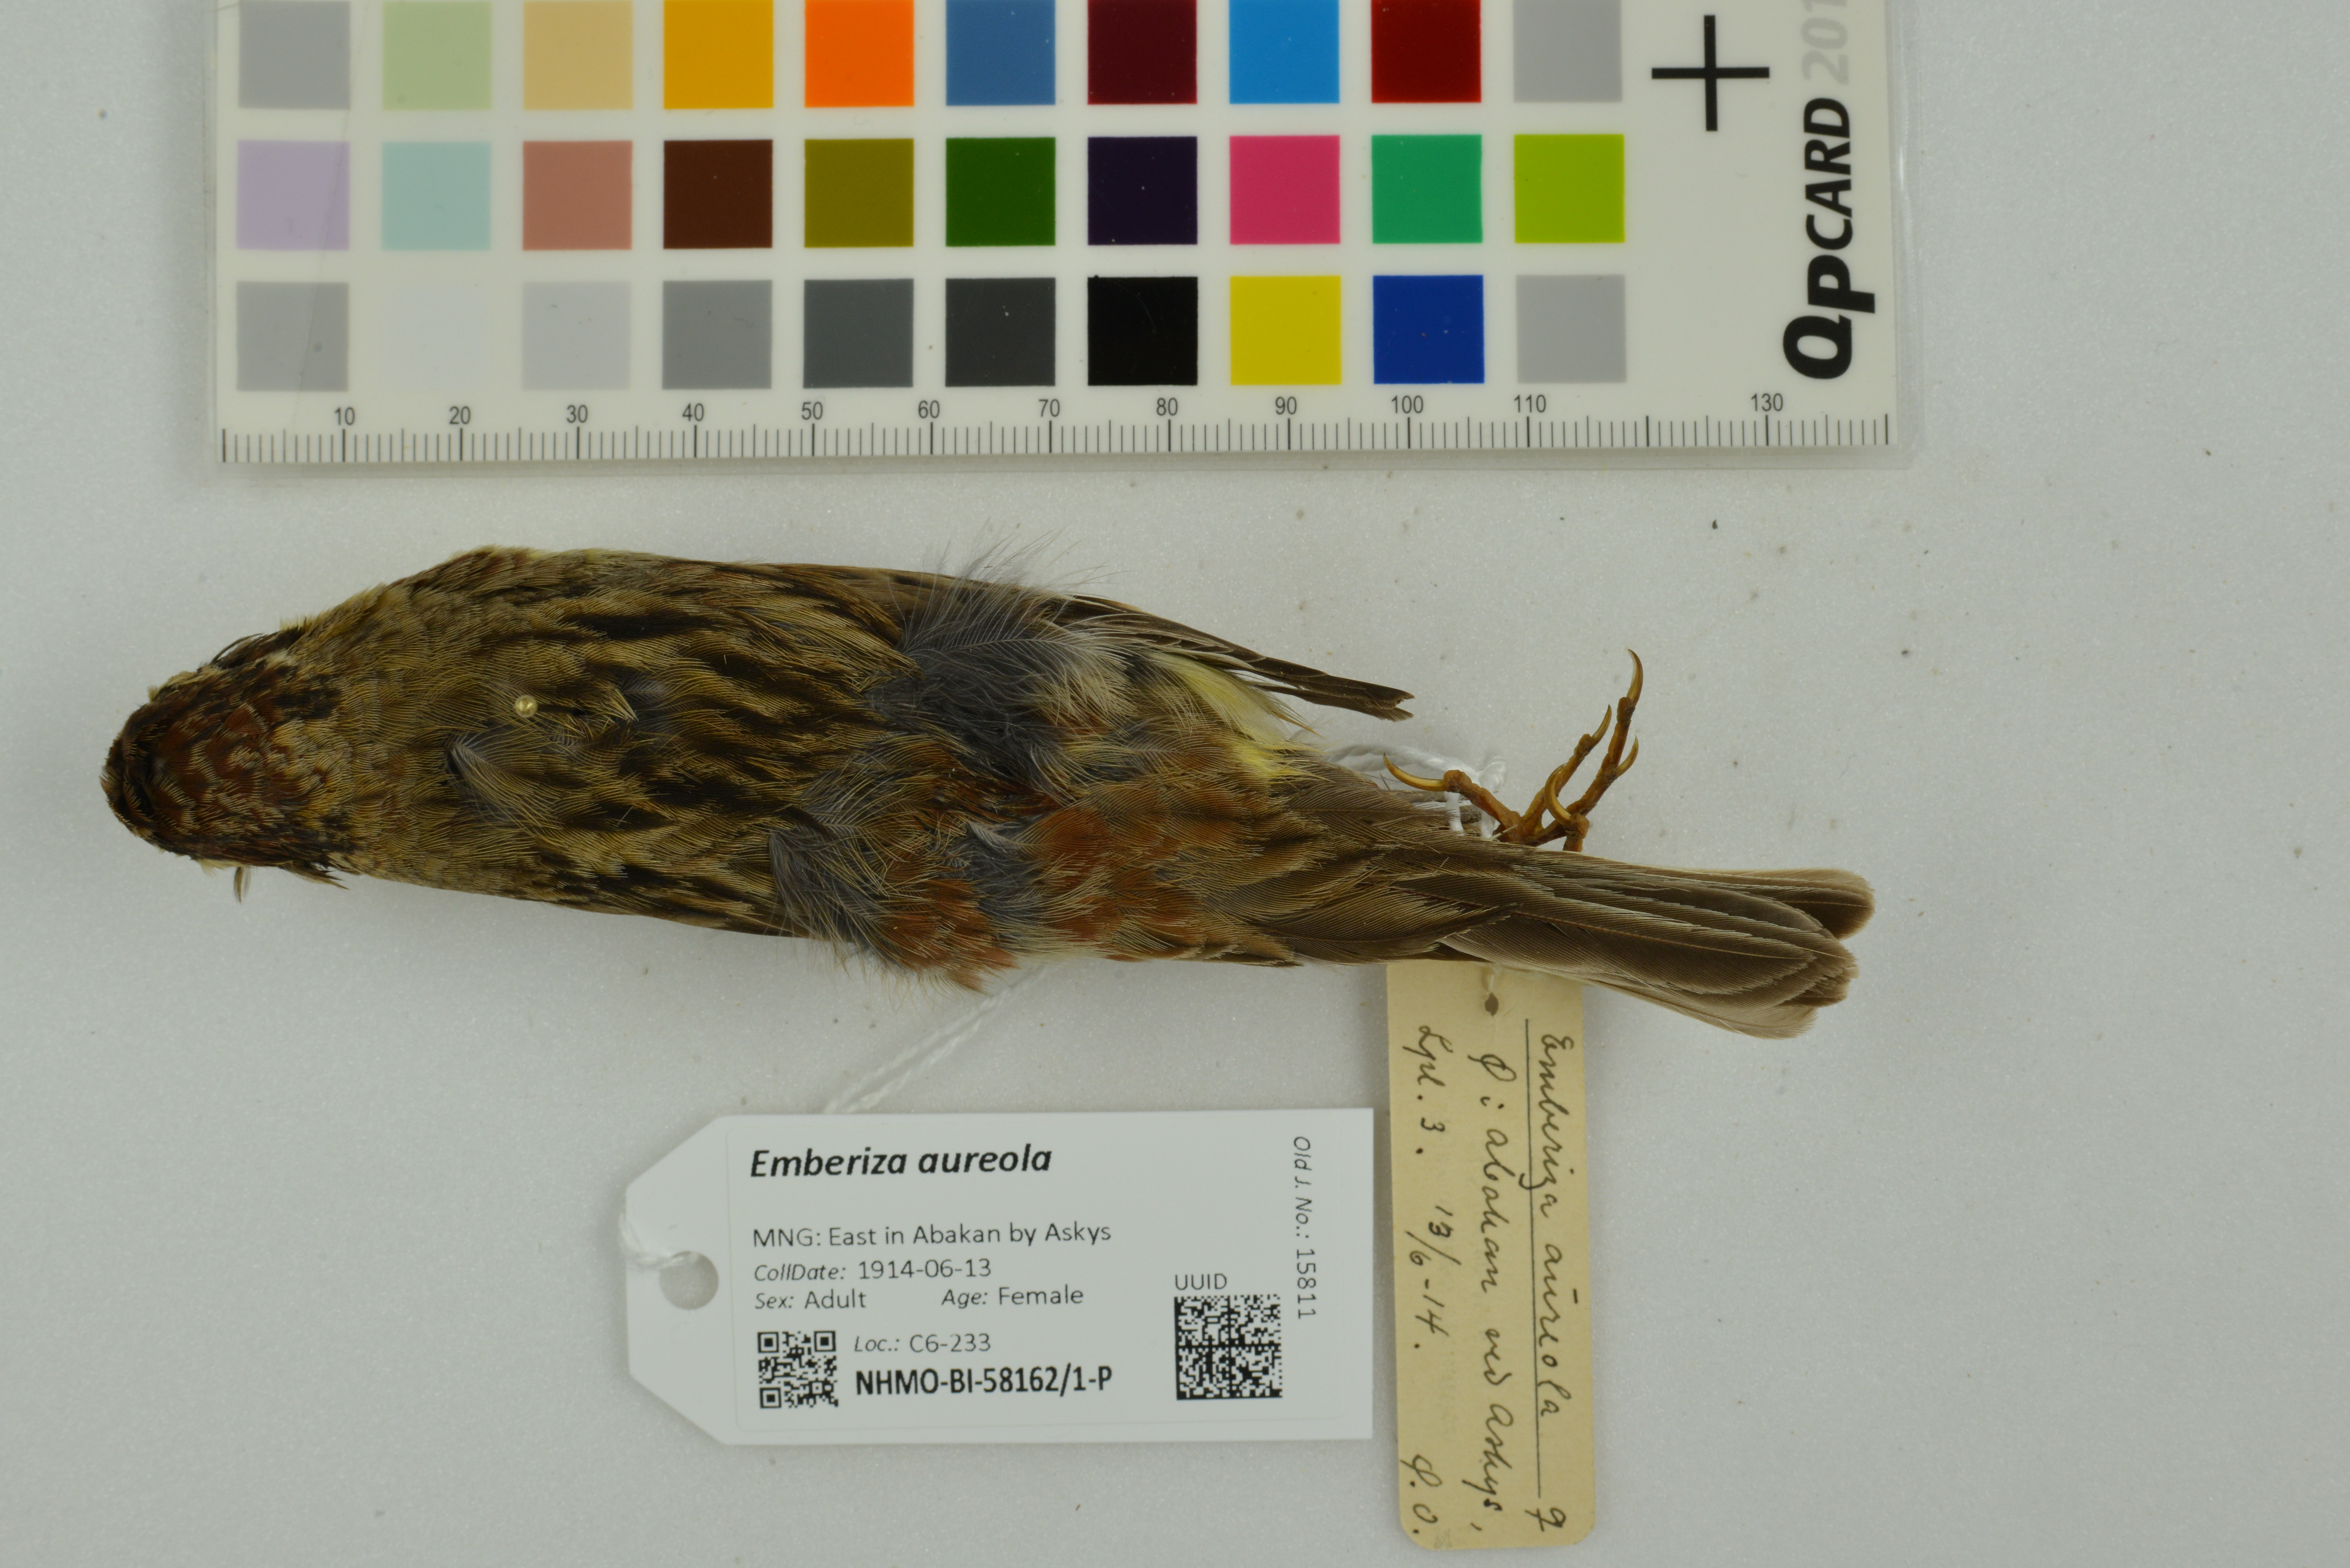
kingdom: Animalia
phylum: Chordata
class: Aves
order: Passeriformes
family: Emberizidae
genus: Emberiza
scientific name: Emberiza aureola
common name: Yellow-breasted bunting
